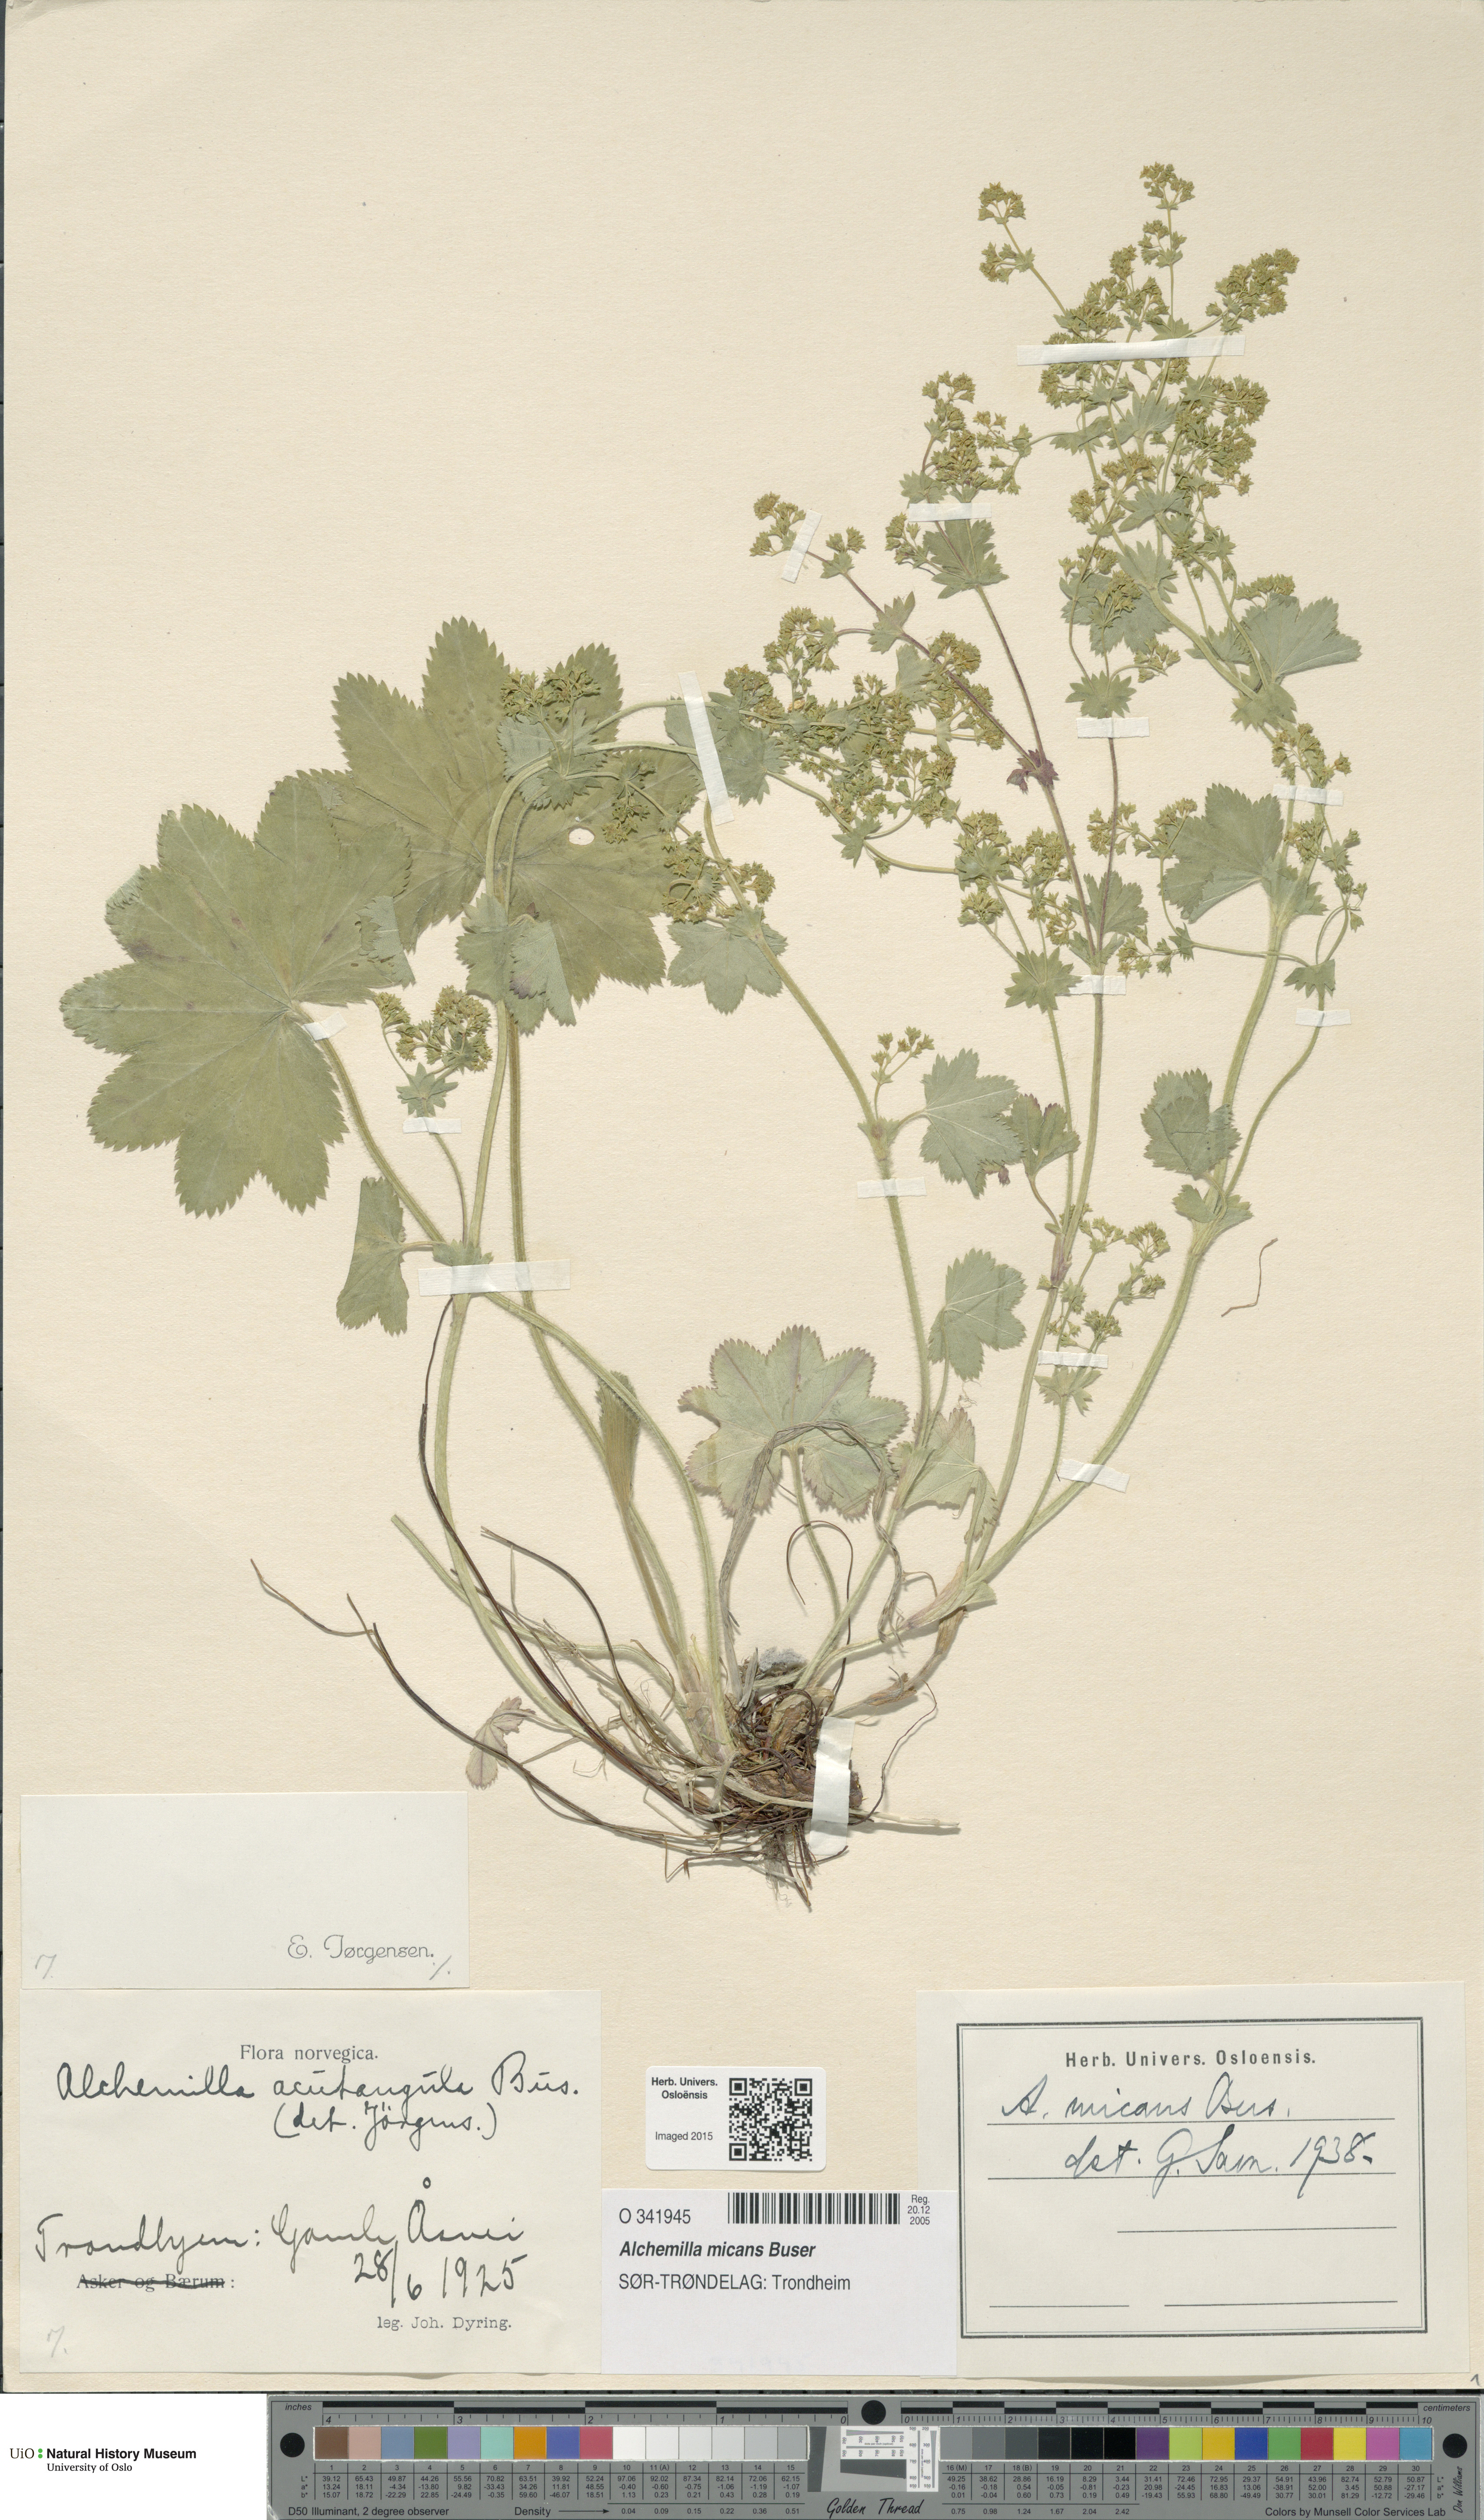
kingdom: Plantae
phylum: Tracheophyta
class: Magnoliopsida
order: Rosales
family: Rosaceae
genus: Alchemilla
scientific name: Alchemilla micans
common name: Gleaming lady's mantle
